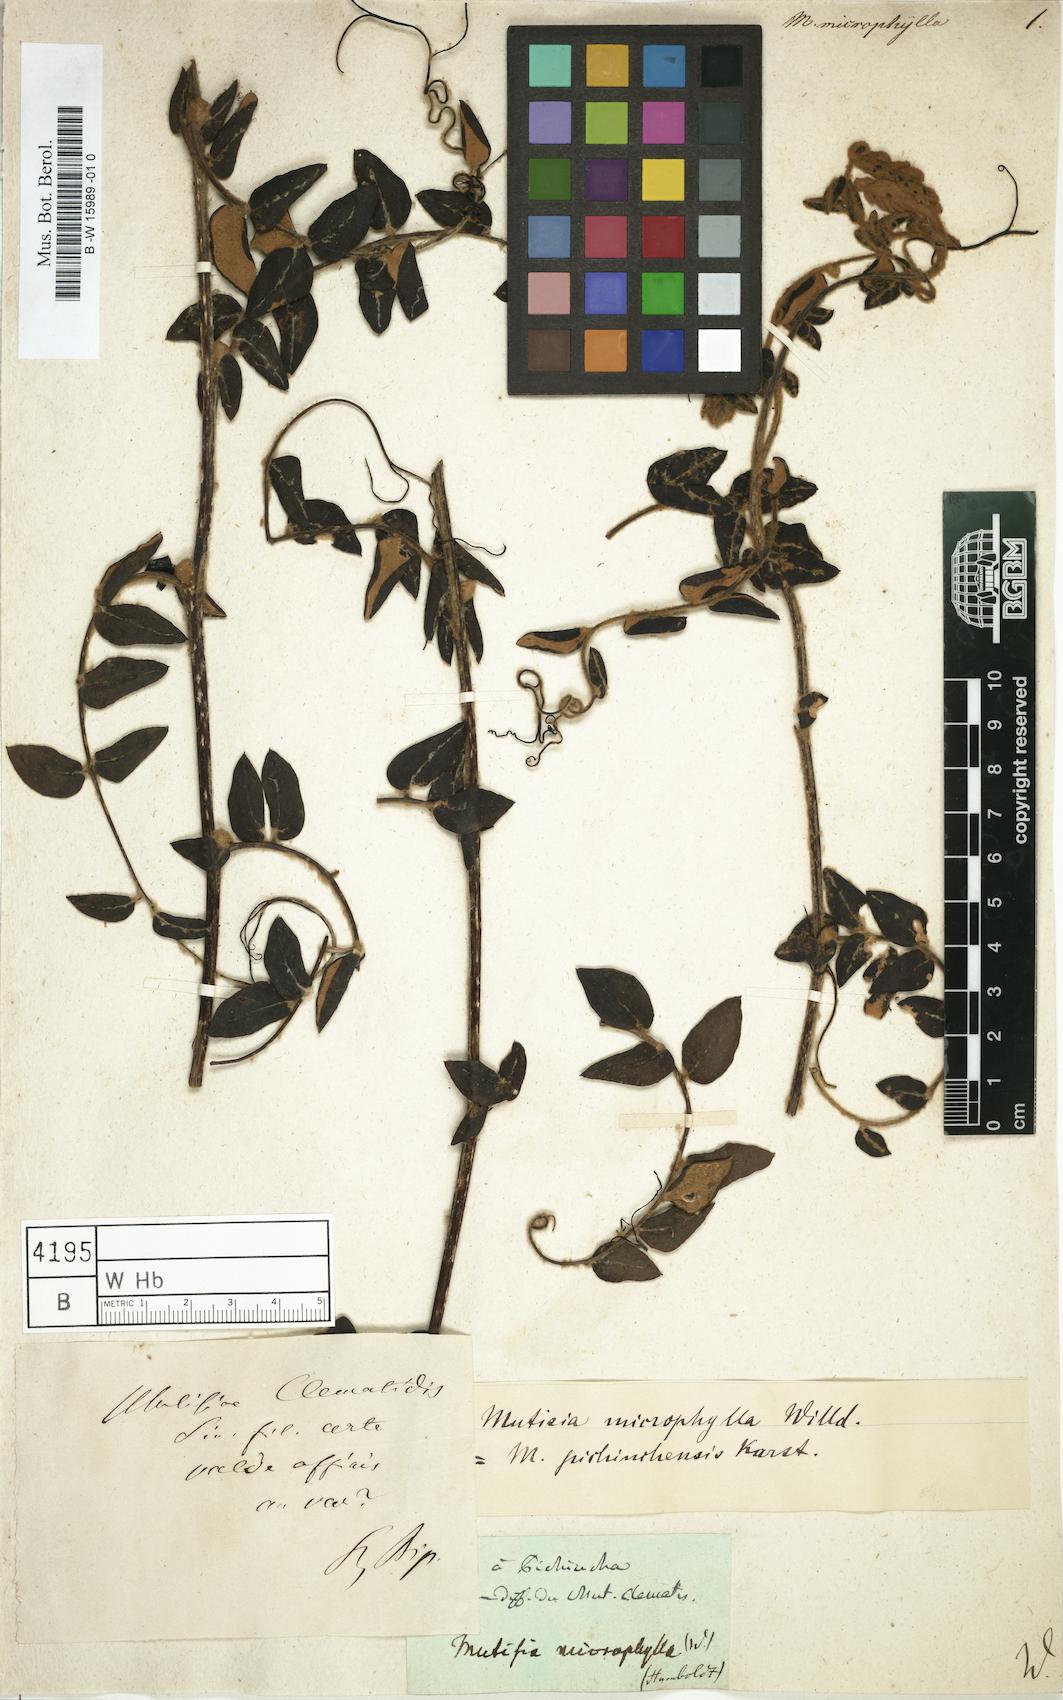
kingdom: Plantae
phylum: Tracheophyta
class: Magnoliopsida
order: Asterales
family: Asteraceae
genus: Mutisia
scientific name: Mutisia microphylla
